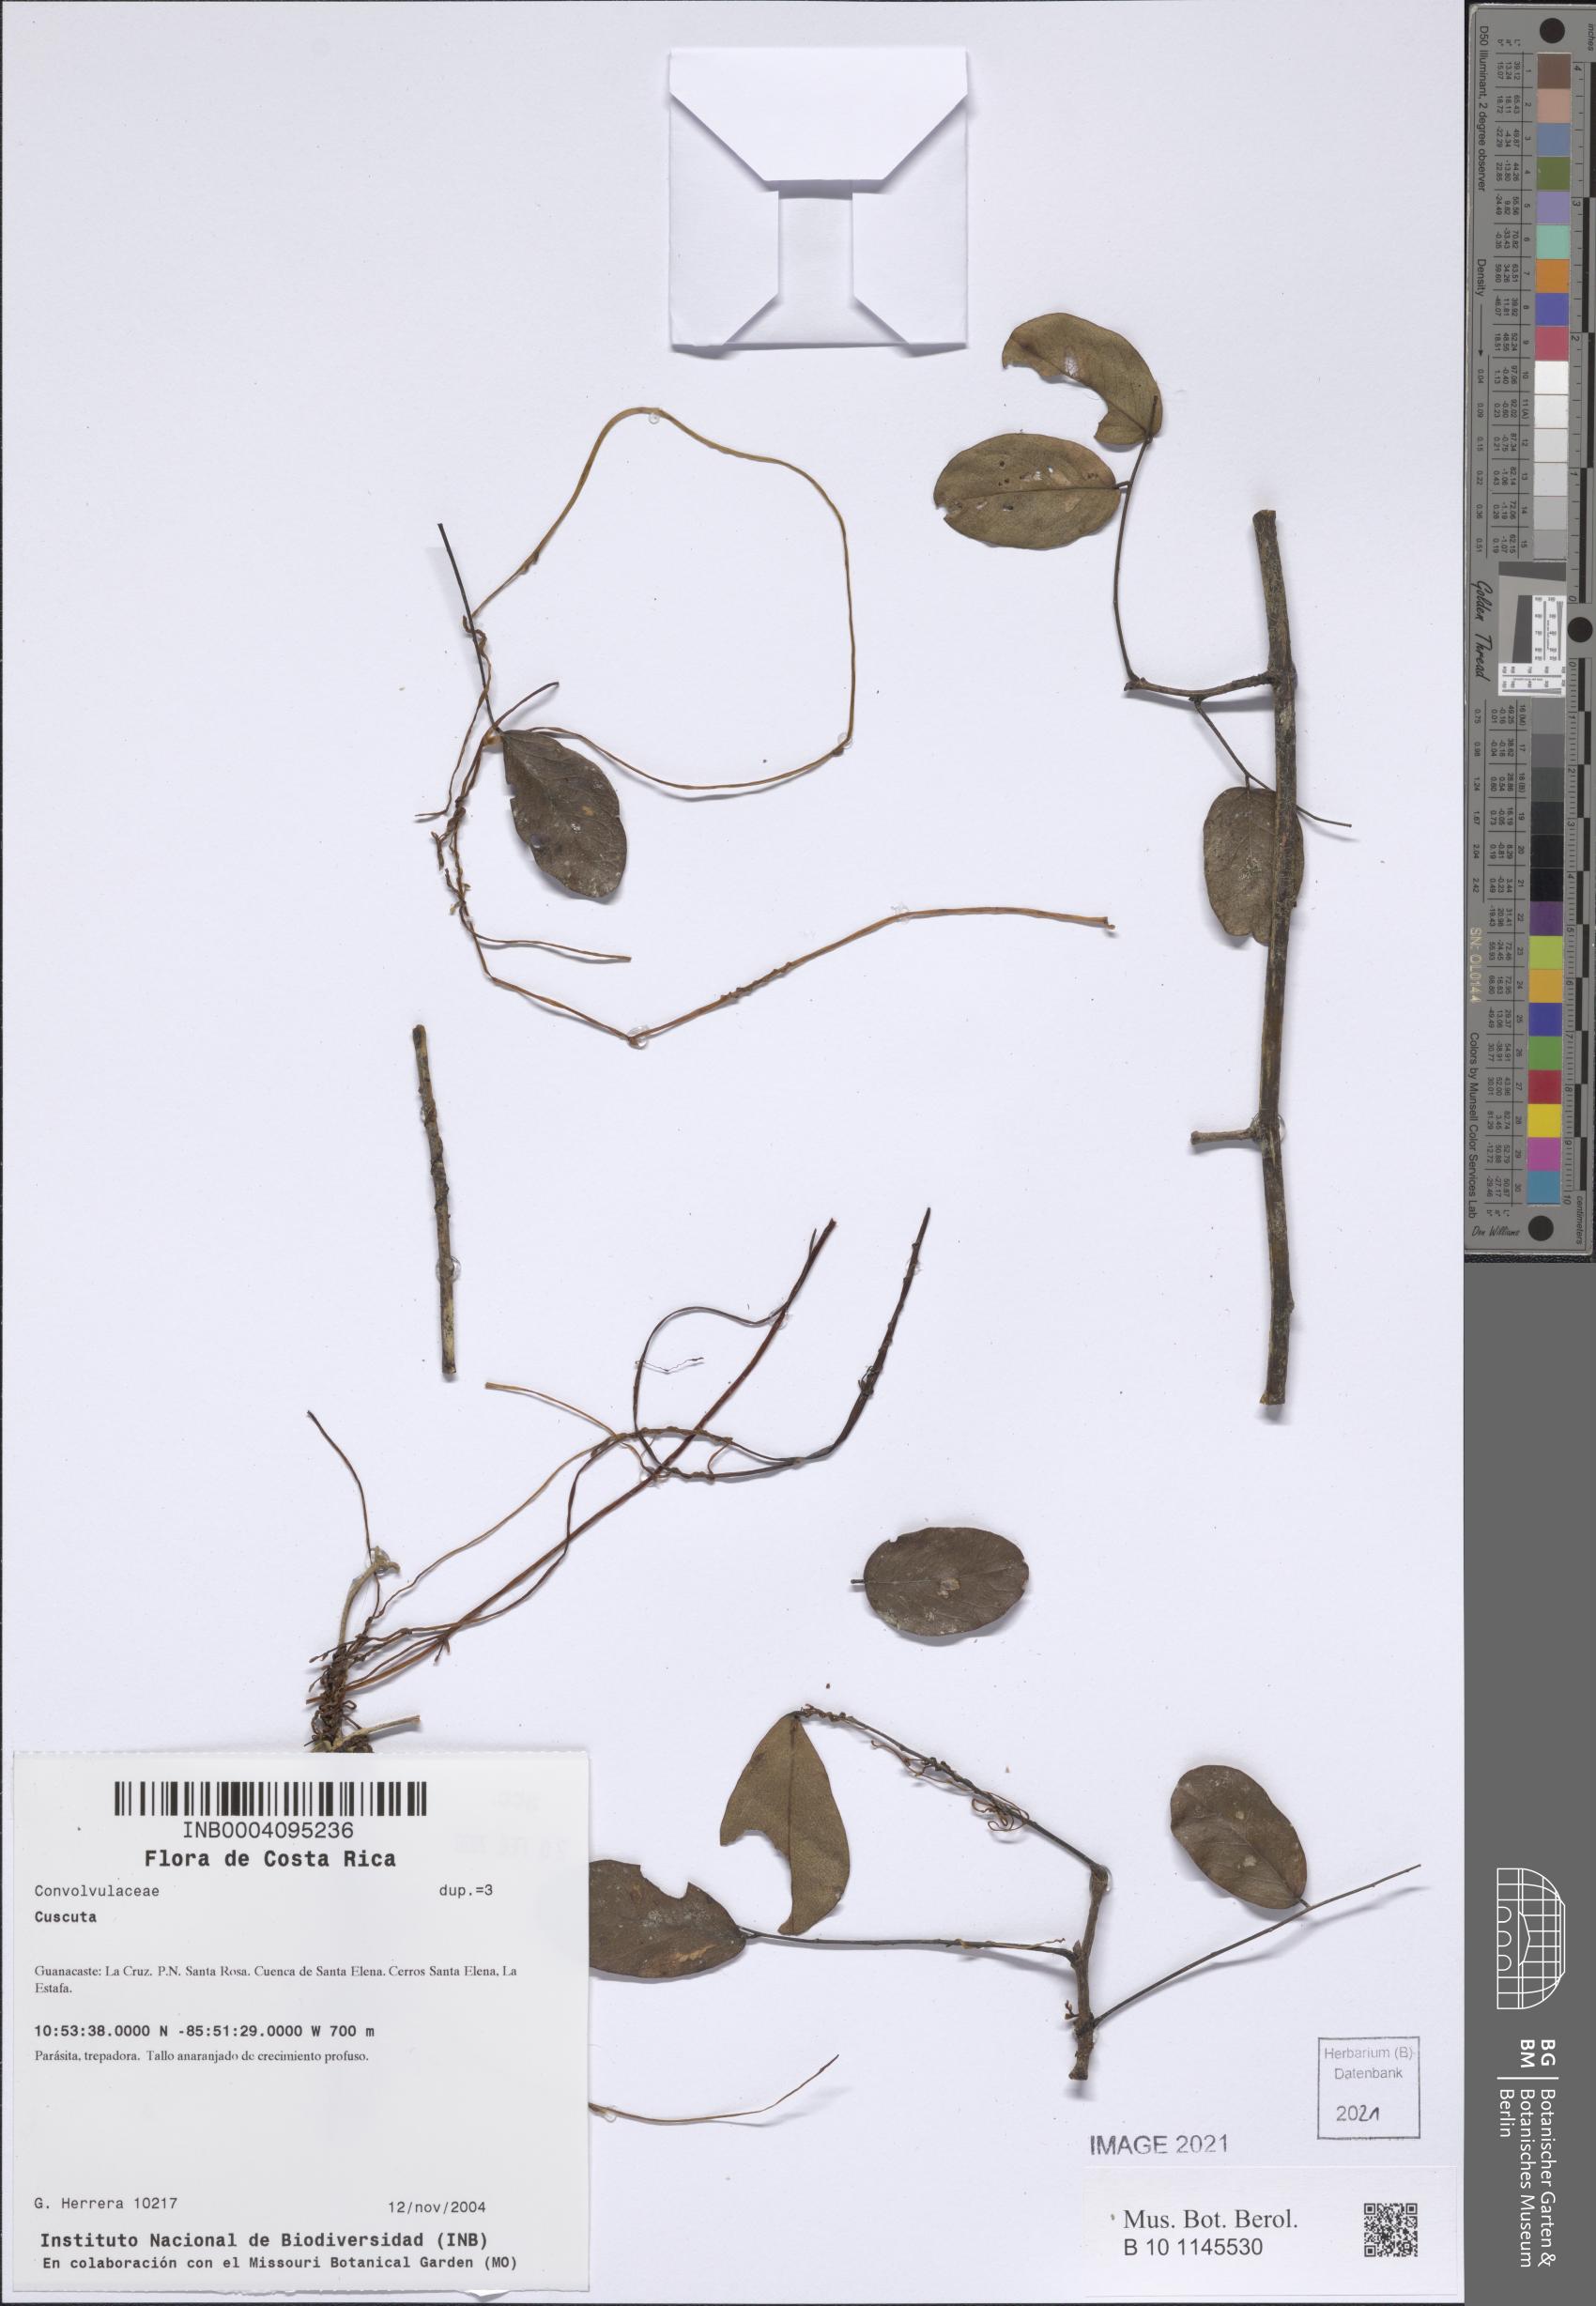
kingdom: Plantae
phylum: Tracheophyta
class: Magnoliopsida
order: Solanales
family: Convolvulaceae
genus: Cuscuta
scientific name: Cuscuta
